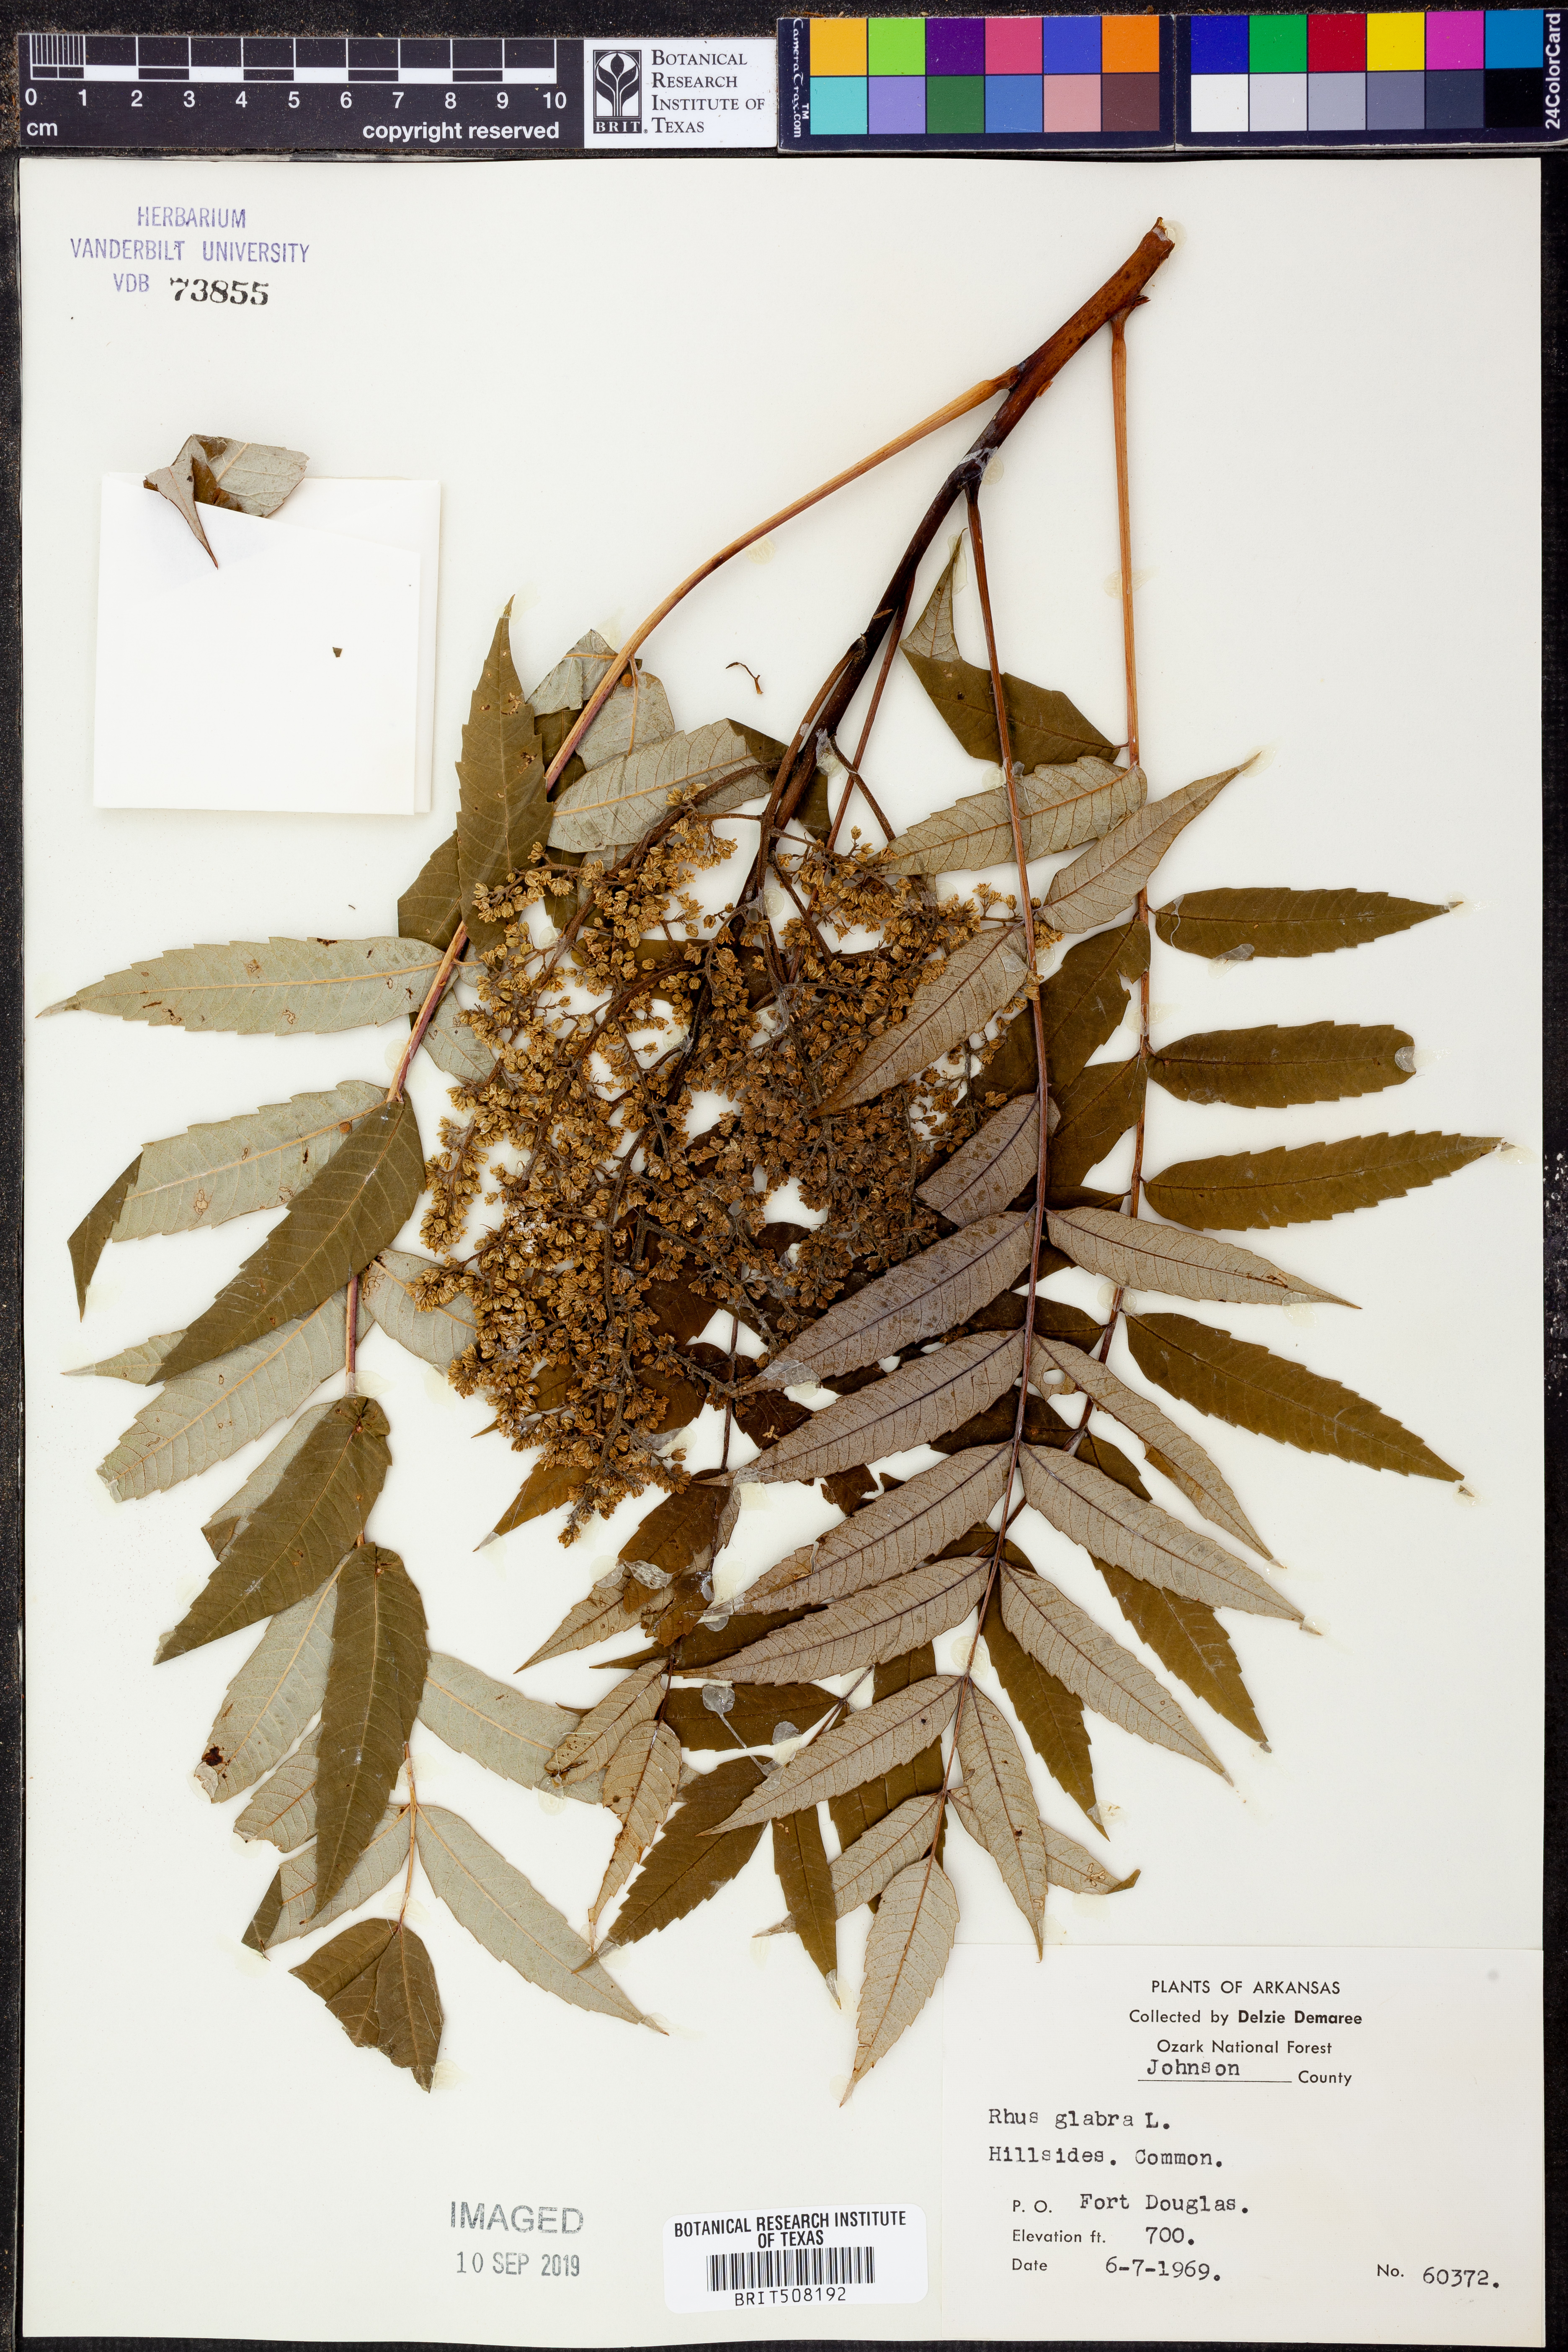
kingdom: Plantae
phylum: Tracheophyta
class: Magnoliopsida
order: Sapindales
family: Anacardiaceae
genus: Rhus
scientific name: Rhus glabra
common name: Scarlet sumac
